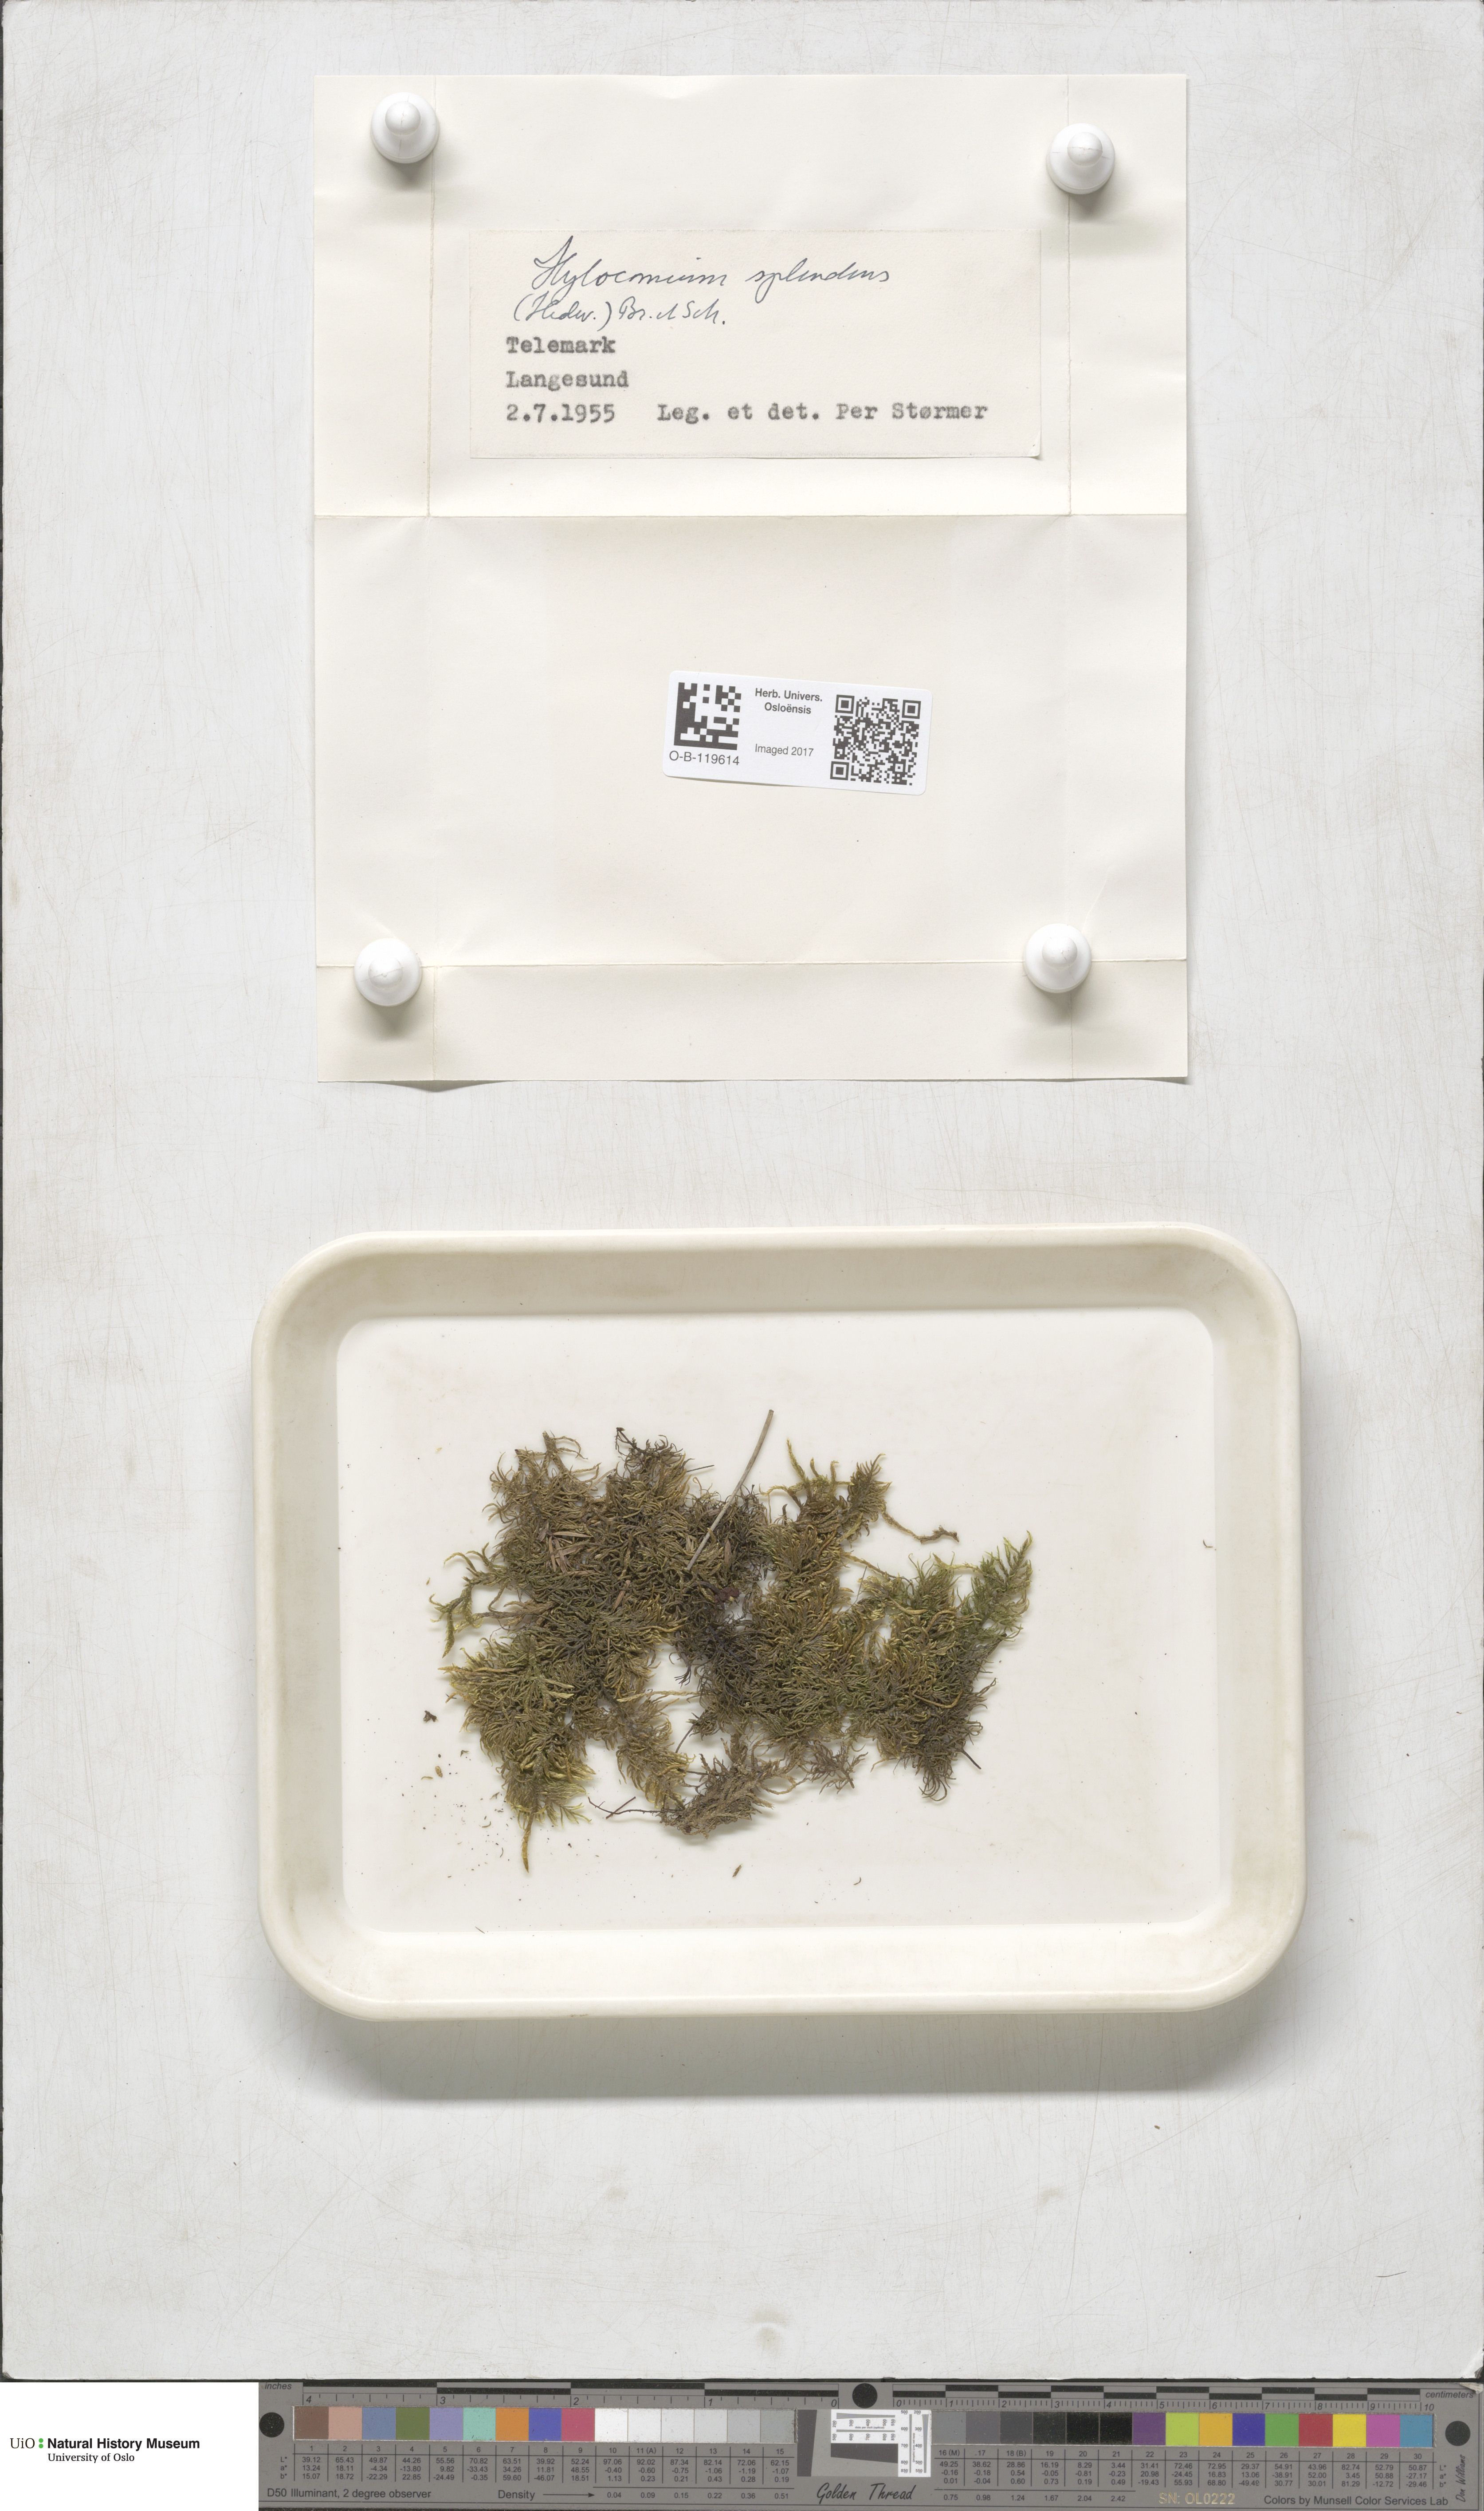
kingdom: Plantae
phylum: Bryophyta
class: Bryopsida
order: Hypnales
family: Hylocomiaceae
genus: Hylocomium
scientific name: Hylocomium splendens
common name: Stairstep moss
